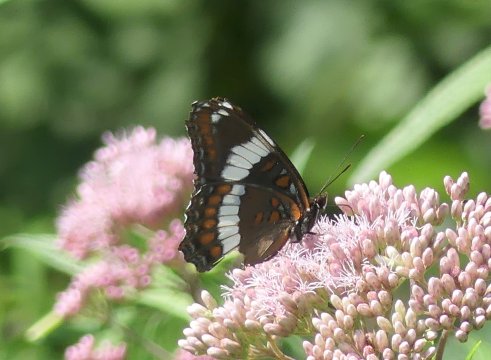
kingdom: Animalia
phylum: Arthropoda
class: Insecta
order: Lepidoptera
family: Nymphalidae
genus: Limenitis
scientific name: Limenitis arthemis
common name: Red-spotted Admiral
